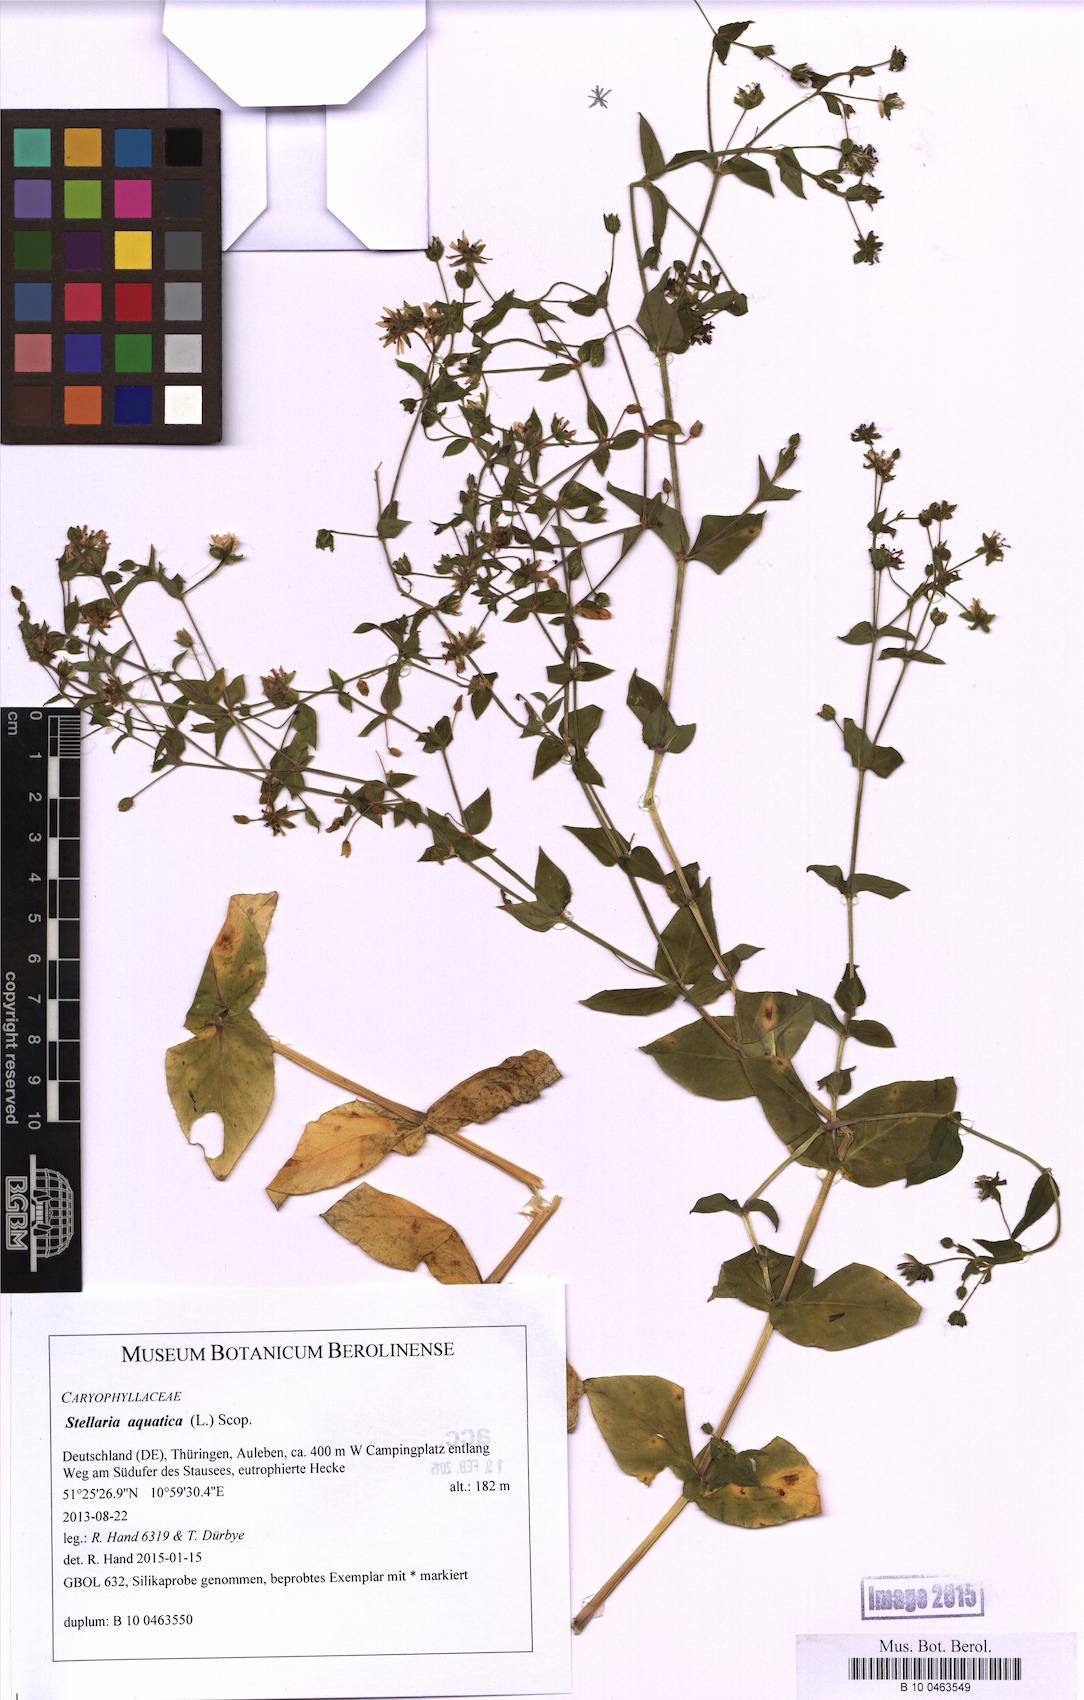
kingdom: Plantae
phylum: Tracheophyta
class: Magnoliopsida
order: Caryophyllales
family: Caryophyllaceae
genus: Stellaria
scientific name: Stellaria aquatica
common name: Water chickweed
